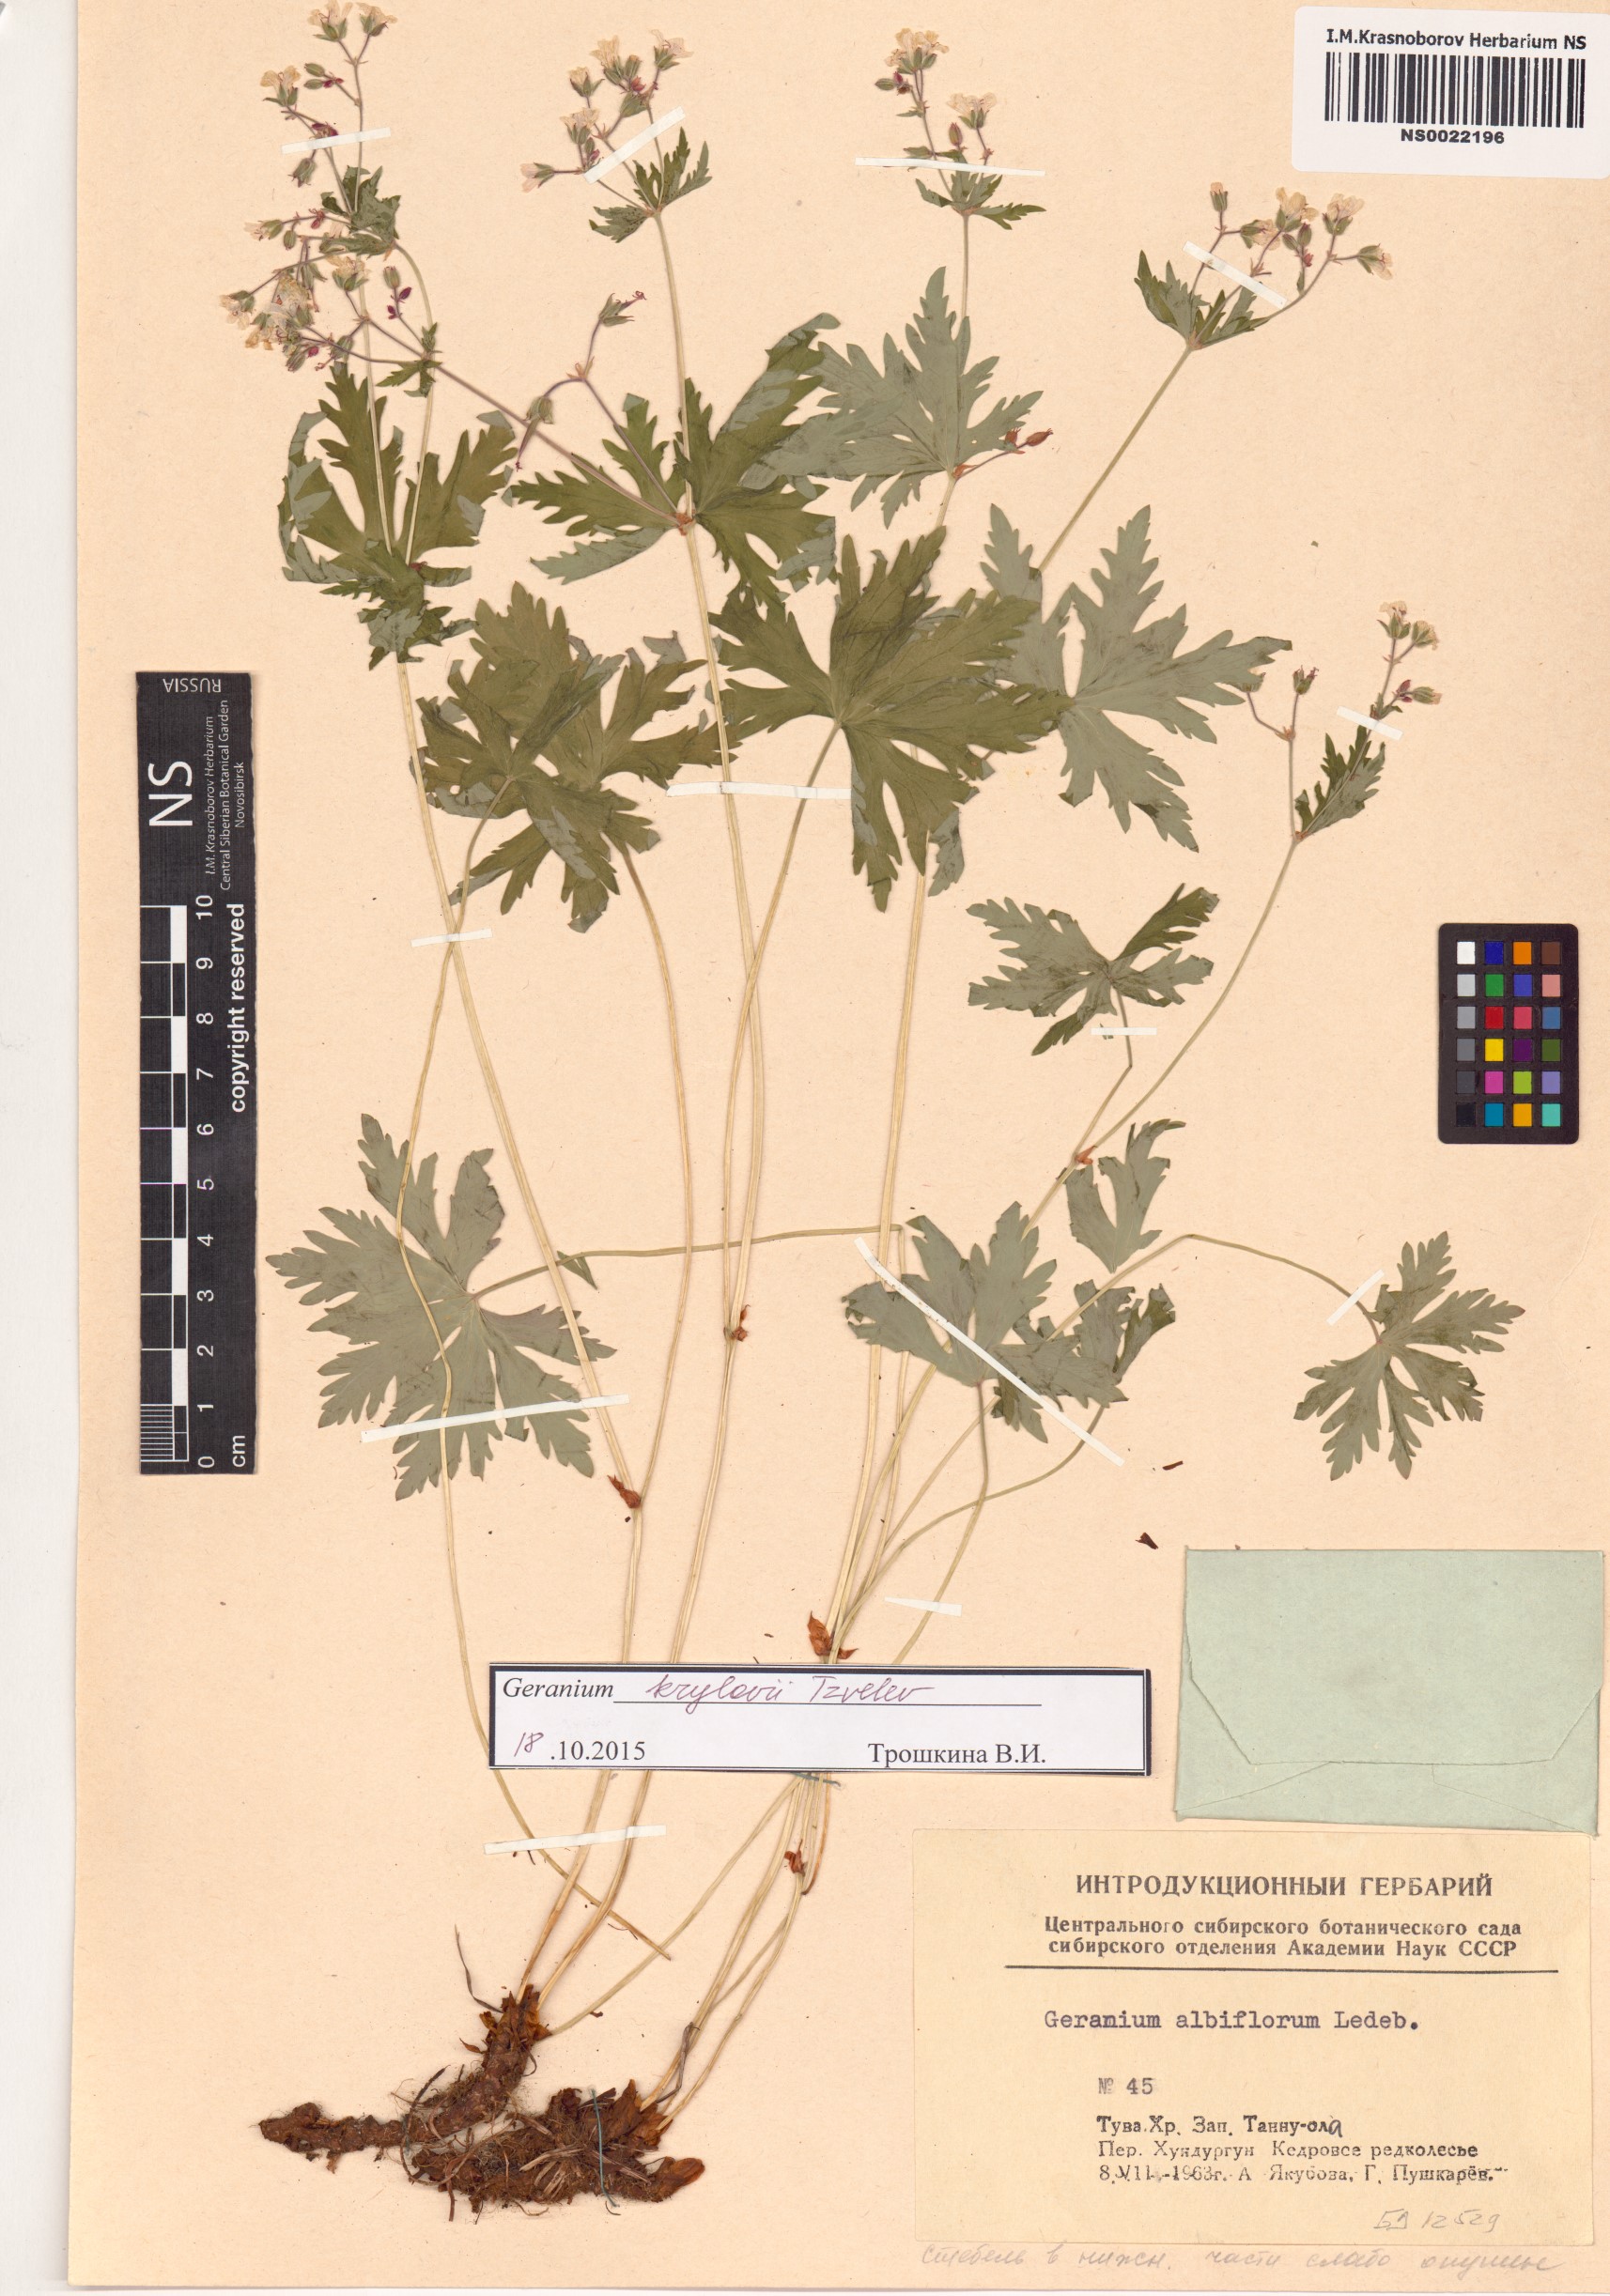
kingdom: Plantae
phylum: Tracheophyta
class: Magnoliopsida
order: Geraniales
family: Geraniaceae
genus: Geranium
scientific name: Geranium sylvaticum
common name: Wood crane's-bill
